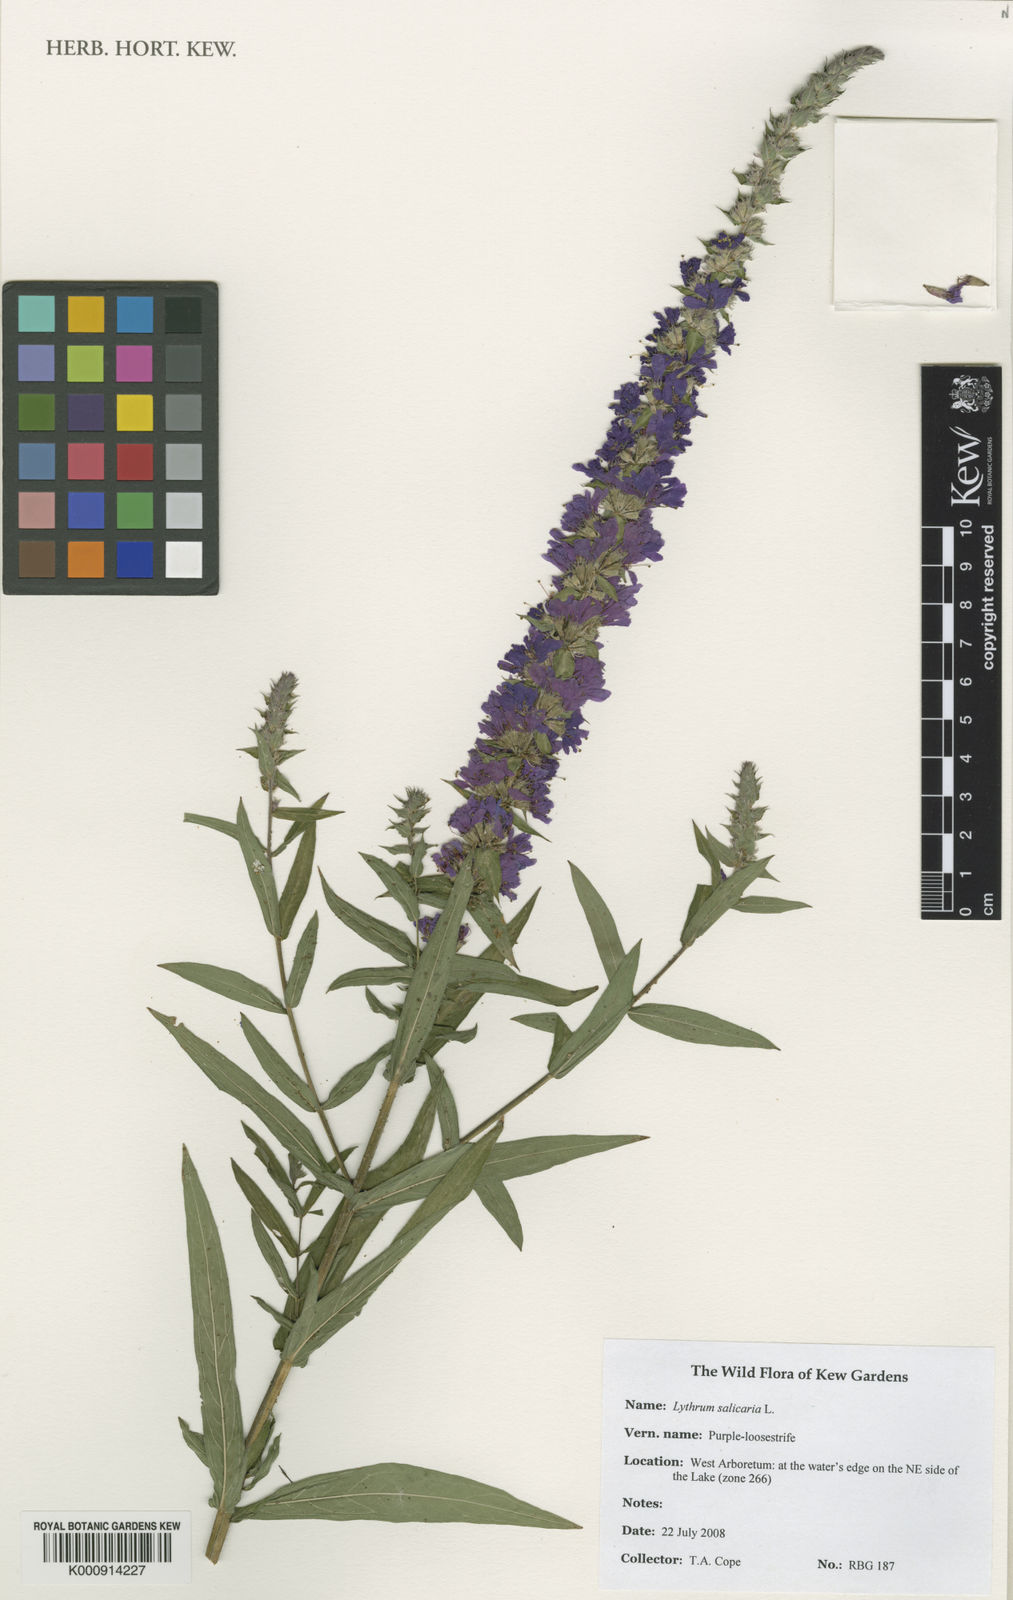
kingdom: Plantae
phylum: Tracheophyta
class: Magnoliopsida
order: Myrtales
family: Lythraceae
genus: Lythrum
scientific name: Lythrum salicaria
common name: Purple loosestrife
